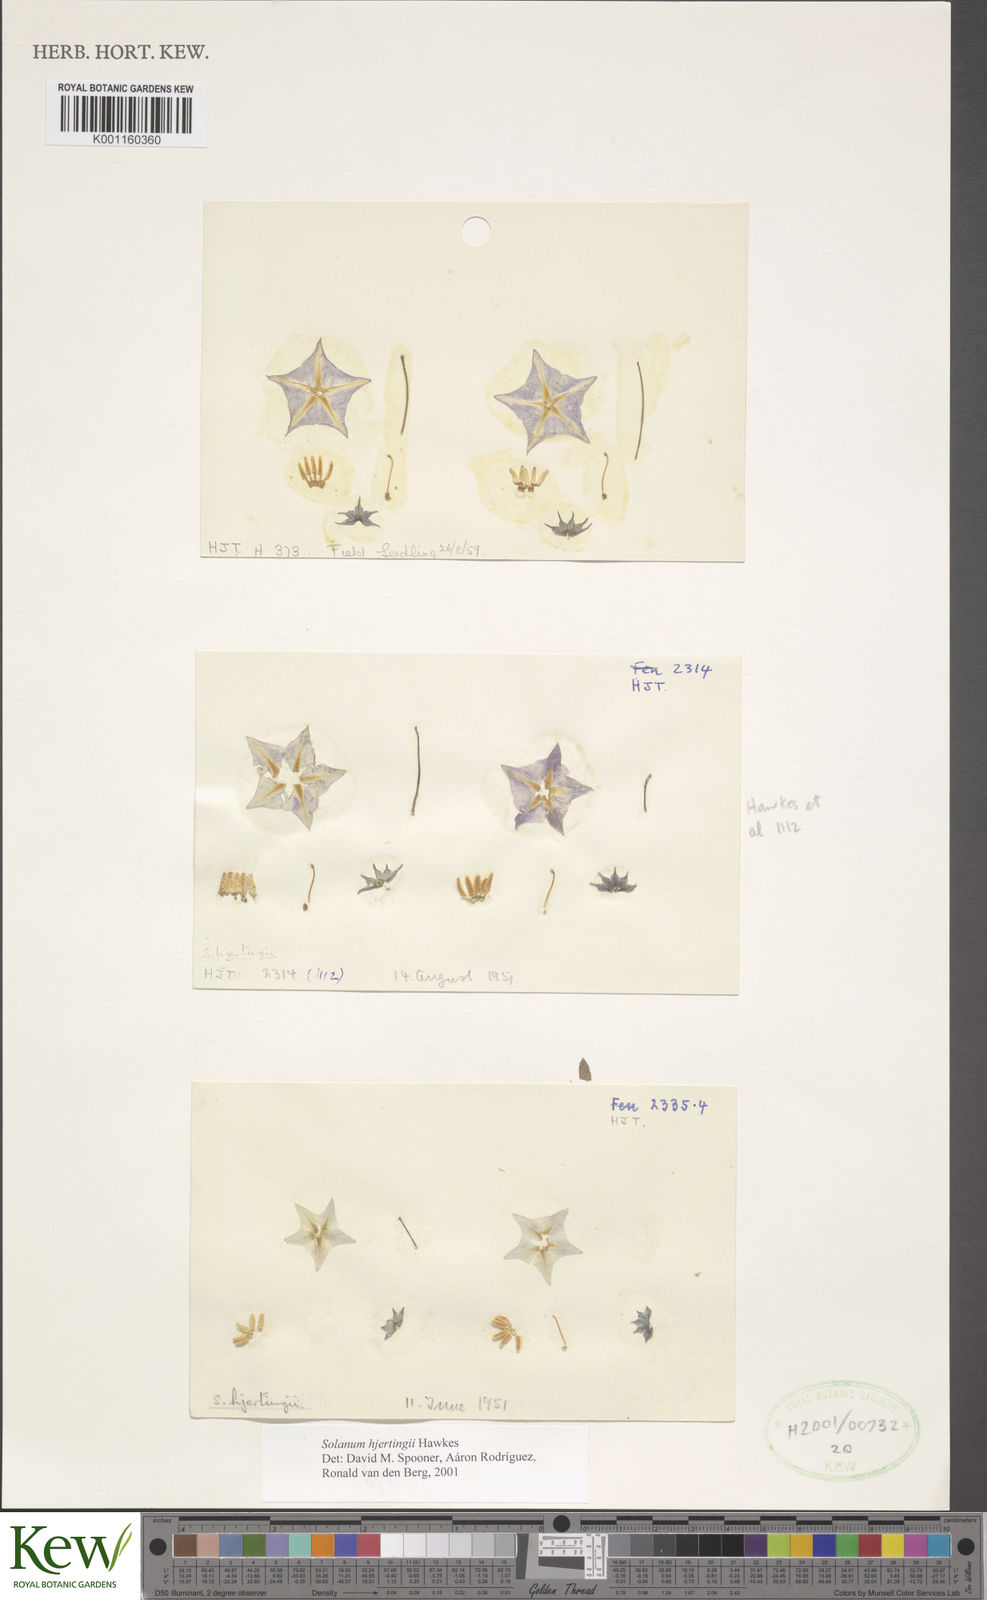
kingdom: Plantae
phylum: Tracheophyta
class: Magnoliopsida
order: Solanales
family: Solanaceae
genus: Solanum
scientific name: Solanum hjertingii
